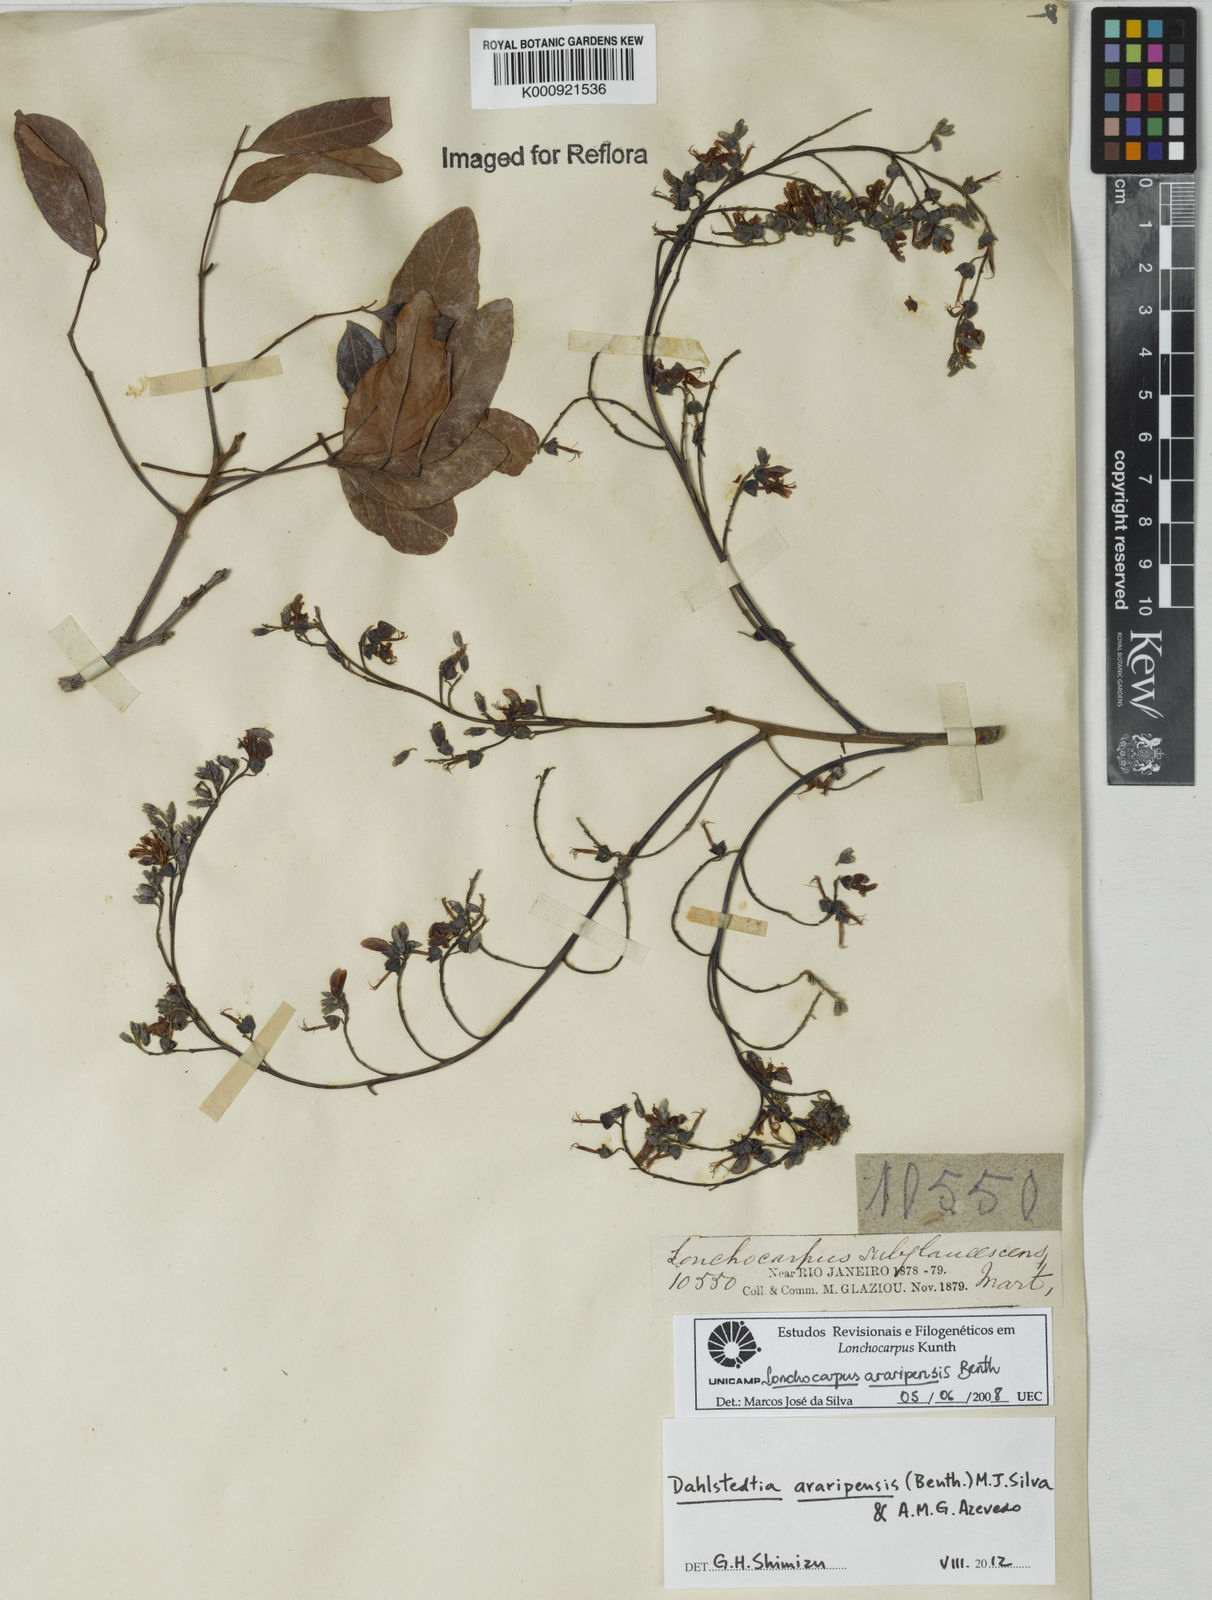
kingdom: Plantae
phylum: Tracheophyta
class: Magnoliopsida
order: Fabales
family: Fabaceae
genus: Dahlstedtia
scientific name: Dahlstedtia araripensis
